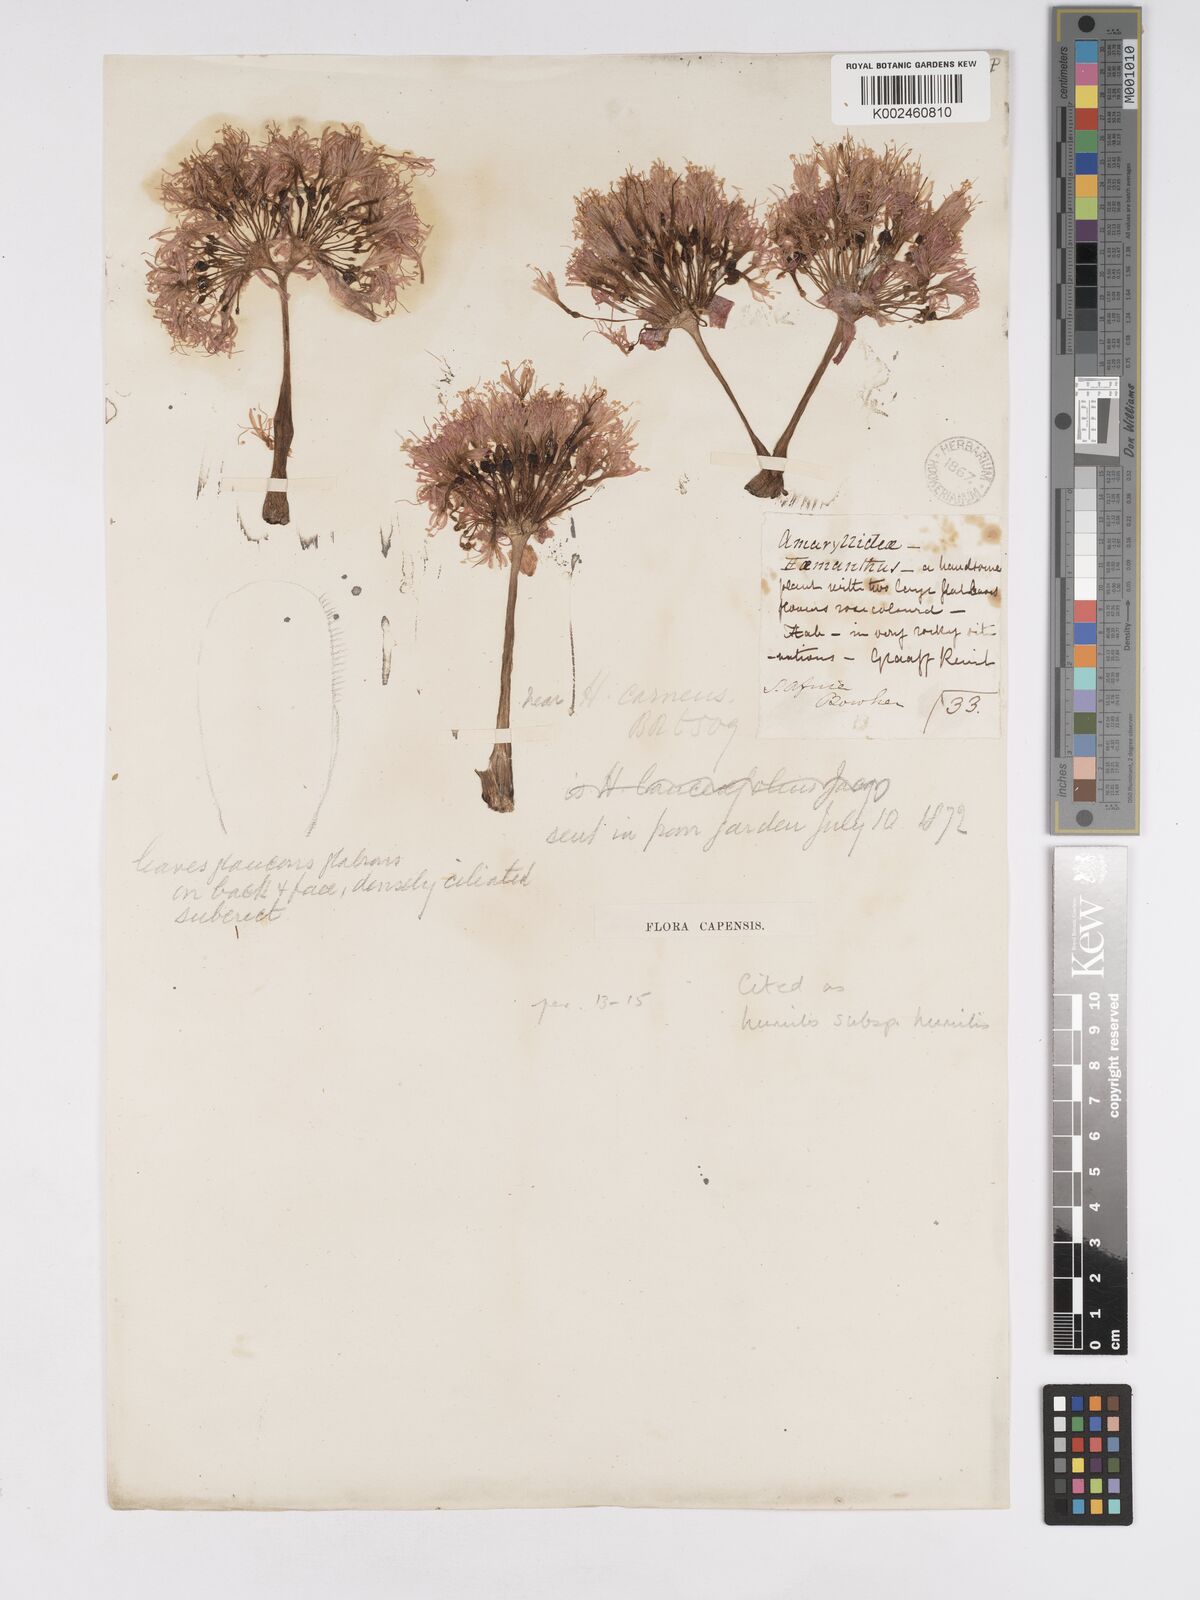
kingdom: Plantae
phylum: Tracheophyta
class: Liliopsida
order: Asparagales
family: Amaryllidaceae
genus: Haemanthus
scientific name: Haemanthus humilis
